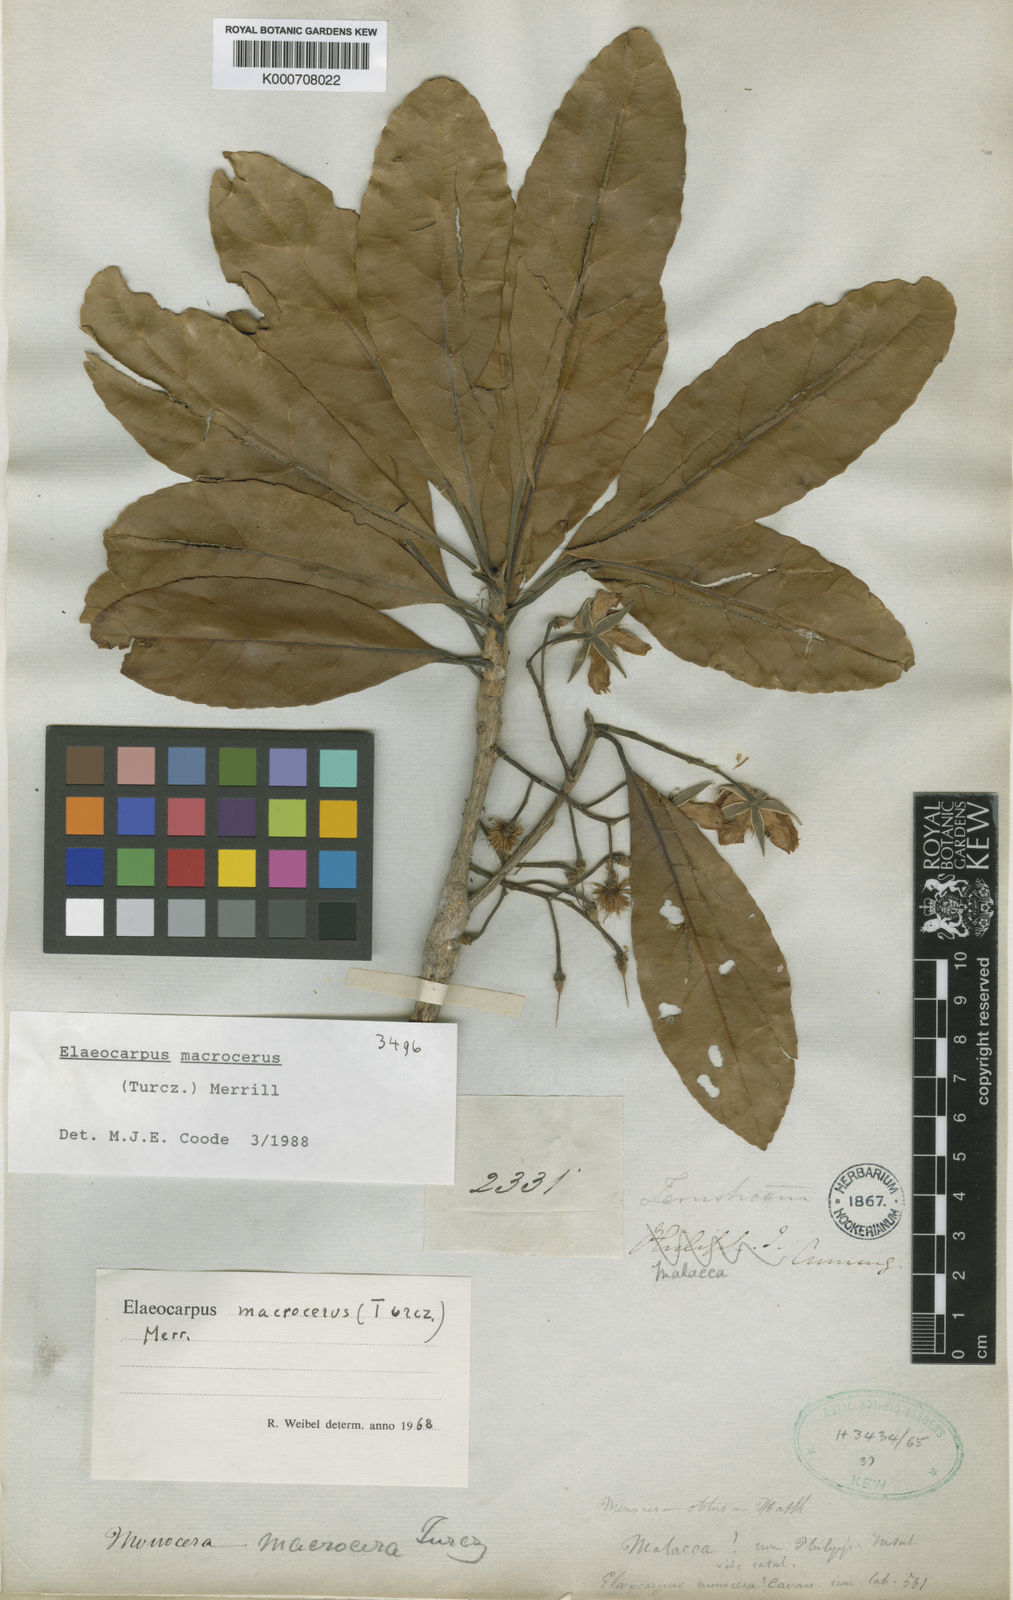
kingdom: Plantae
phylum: Tracheophyta
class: Magnoliopsida
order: Oxalidales
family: Elaeocarpaceae
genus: Elaeocarpus
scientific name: Elaeocarpus macrocerus
